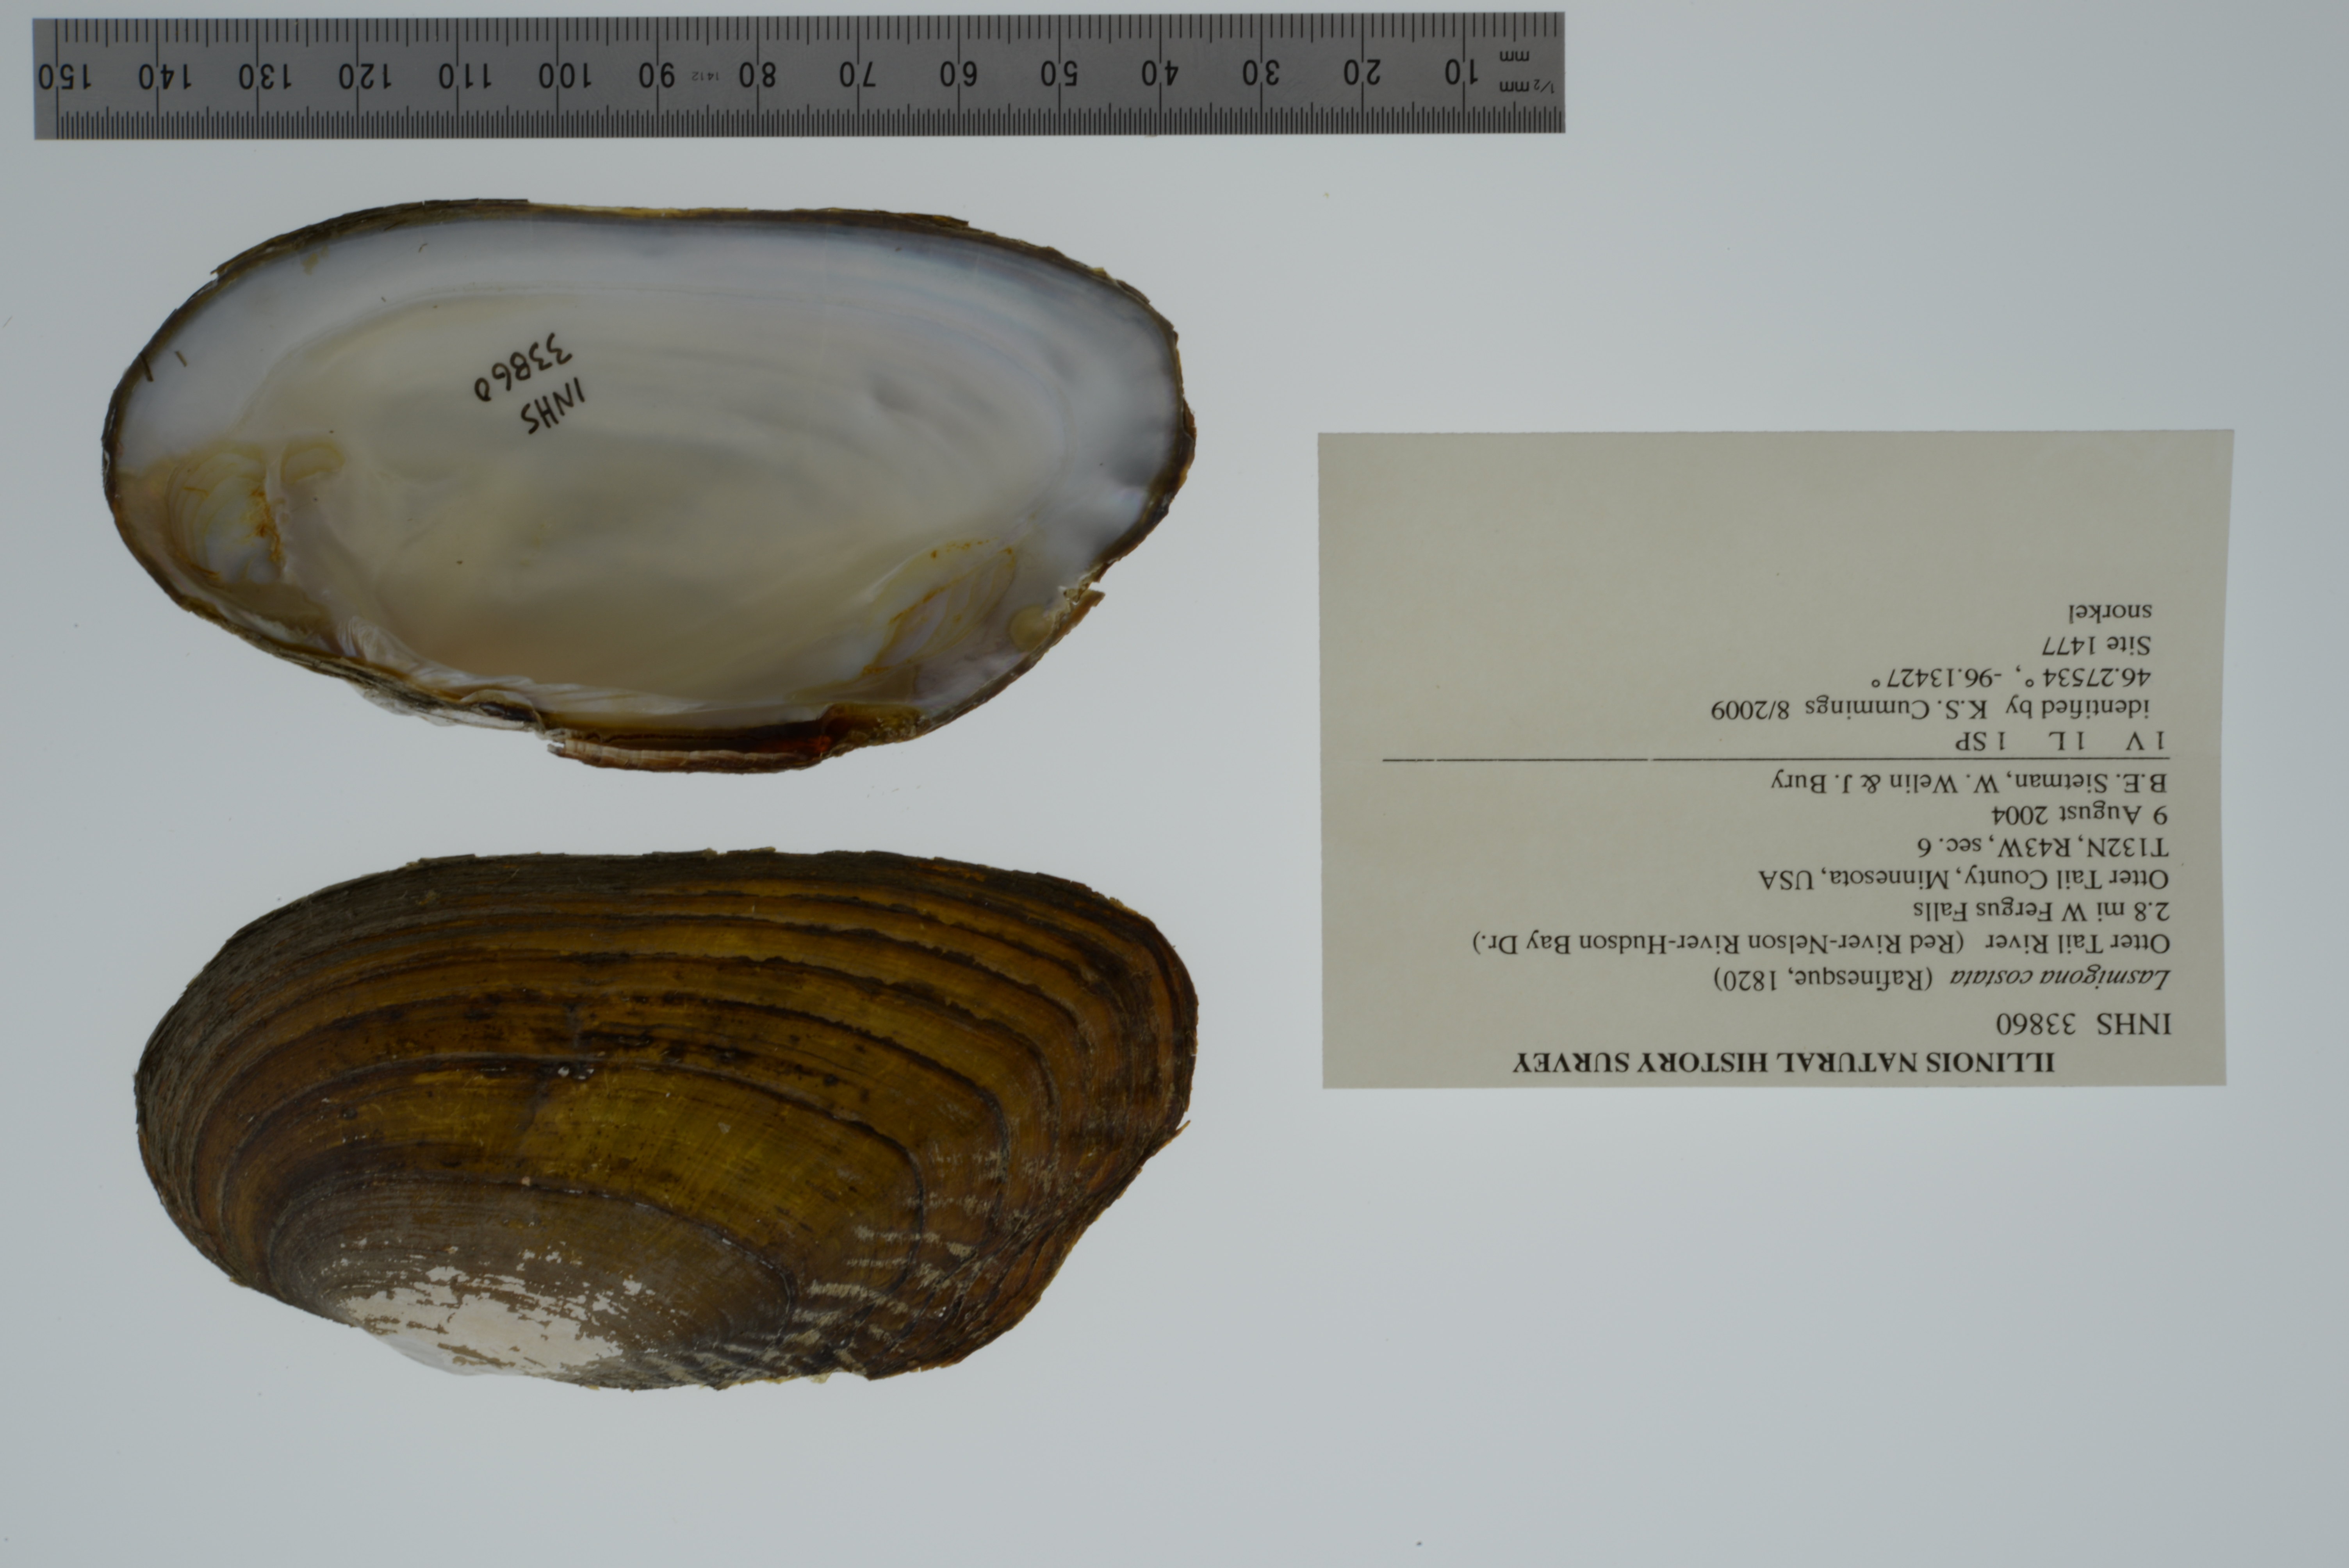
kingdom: Animalia
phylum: Mollusca
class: Bivalvia
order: Unionida
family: Unionidae
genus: Lasmigona
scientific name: Lasmigona costata
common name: Flutedshell
